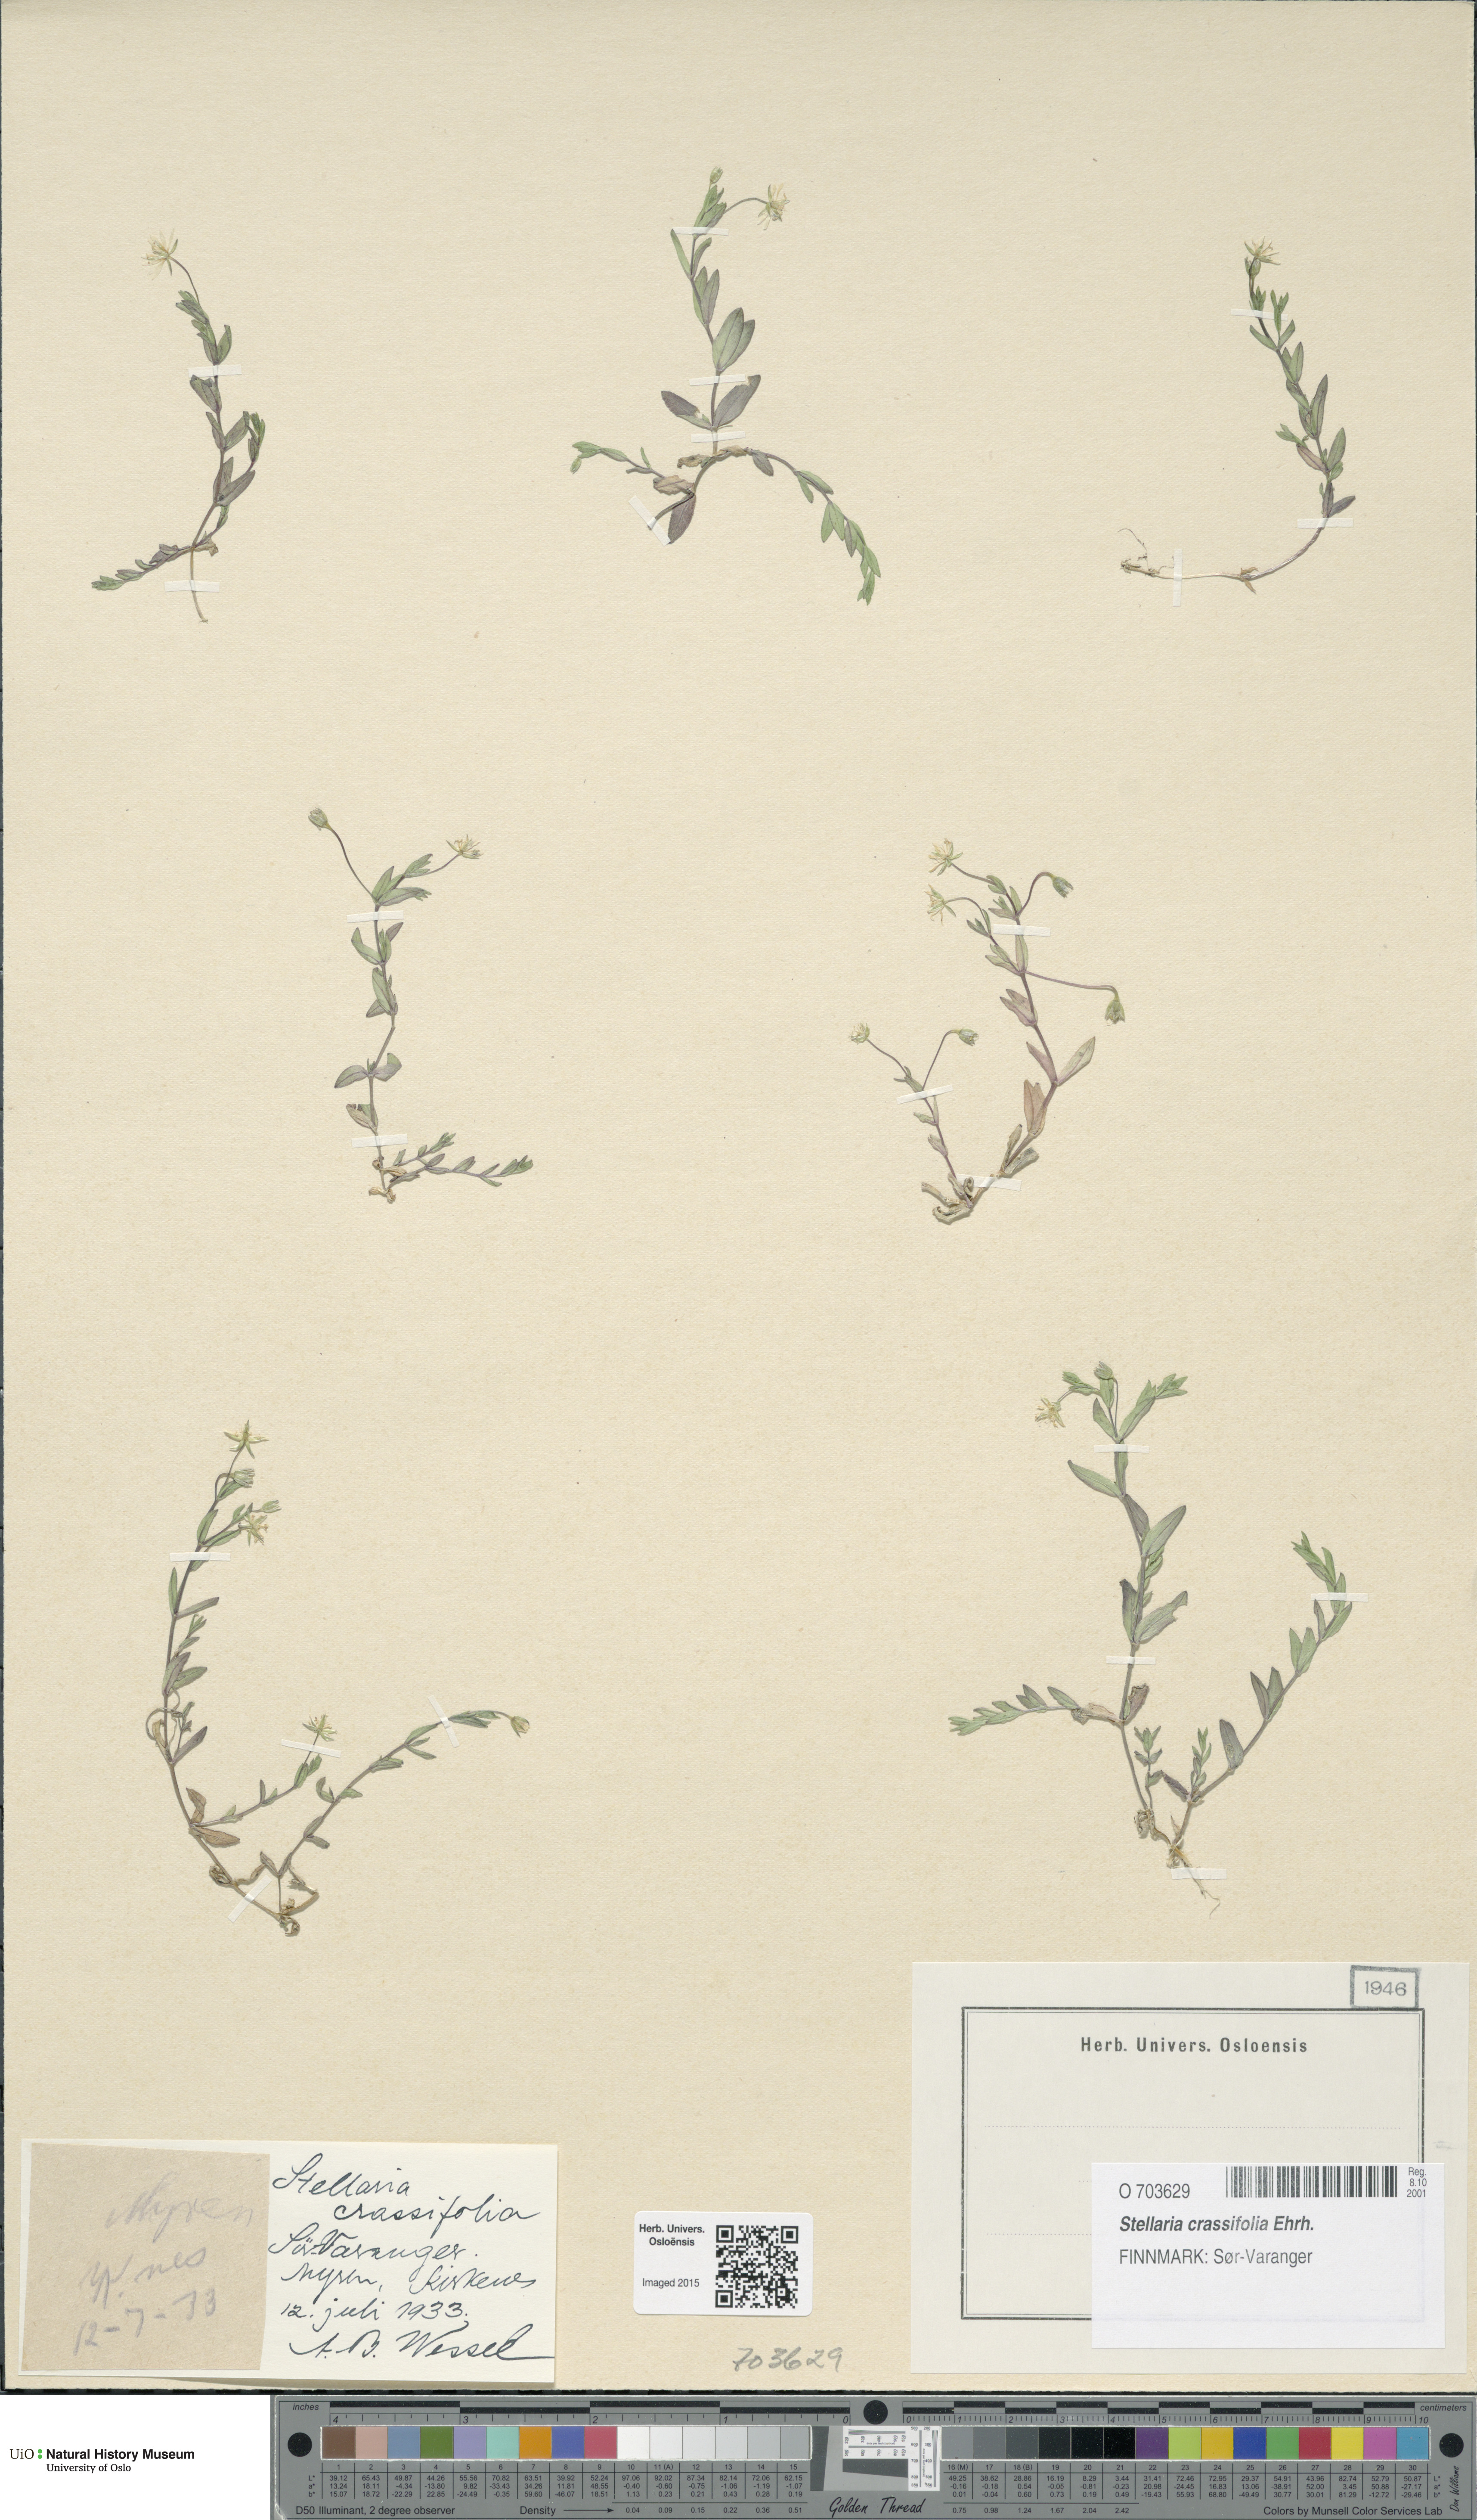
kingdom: Plantae
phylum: Tracheophyta
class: Magnoliopsida
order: Caryophyllales
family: Caryophyllaceae
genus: Stellaria
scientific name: Stellaria crassifolia
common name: Fleshy starwort
